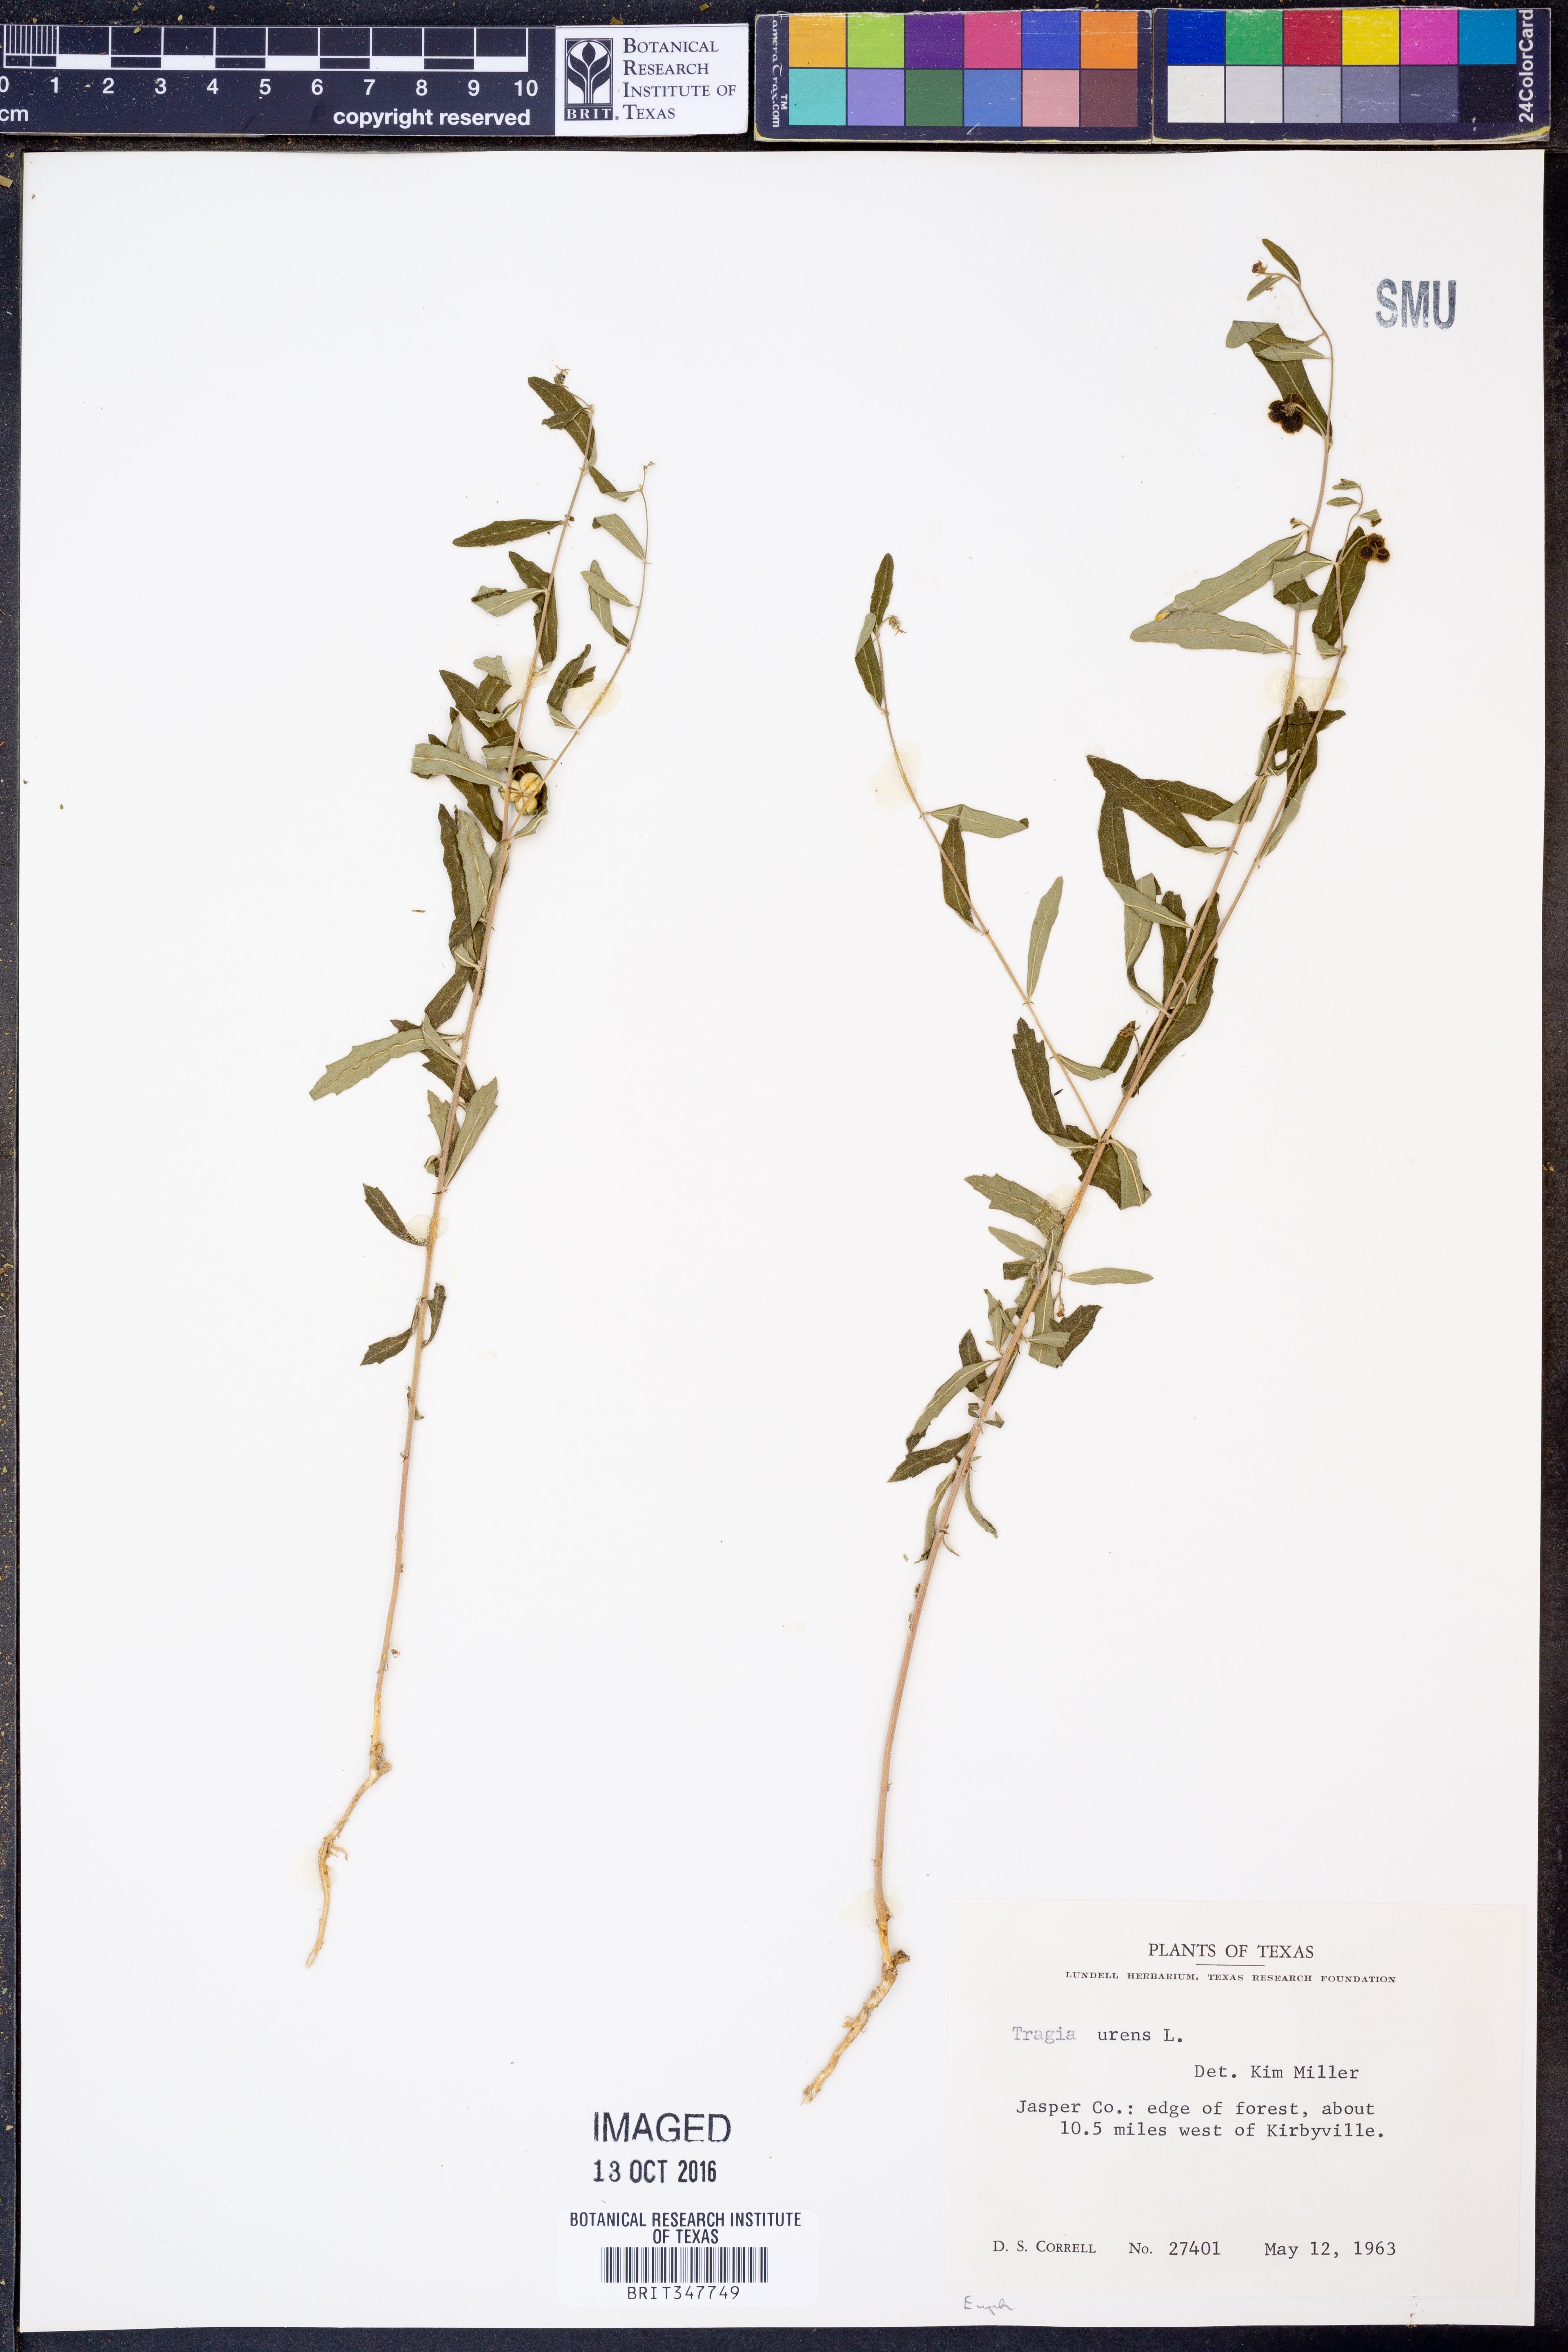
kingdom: Plantae
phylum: Tracheophyta
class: Magnoliopsida
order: Malpighiales
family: Euphorbiaceae
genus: Tragia
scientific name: Tragia urens
